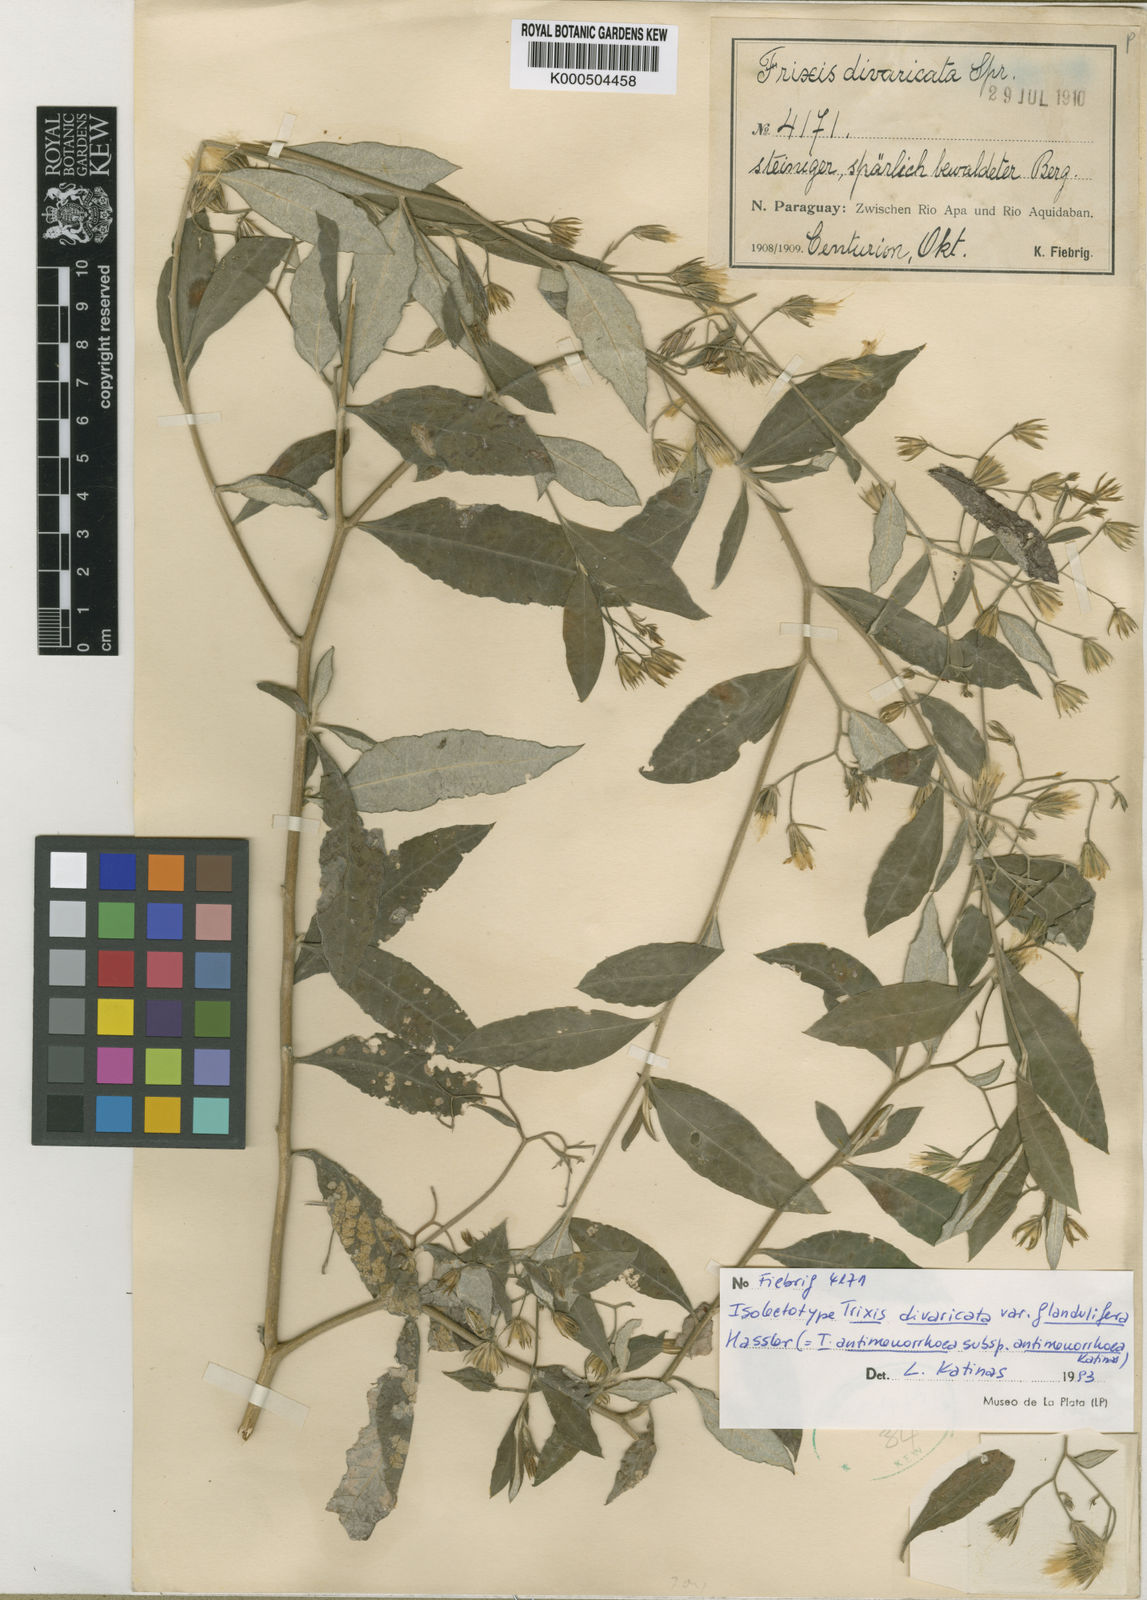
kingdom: Plantae
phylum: Tracheophyta
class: Magnoliopsida
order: Asterales
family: Asteraceae
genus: Trixis
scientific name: Trixis divaricata
